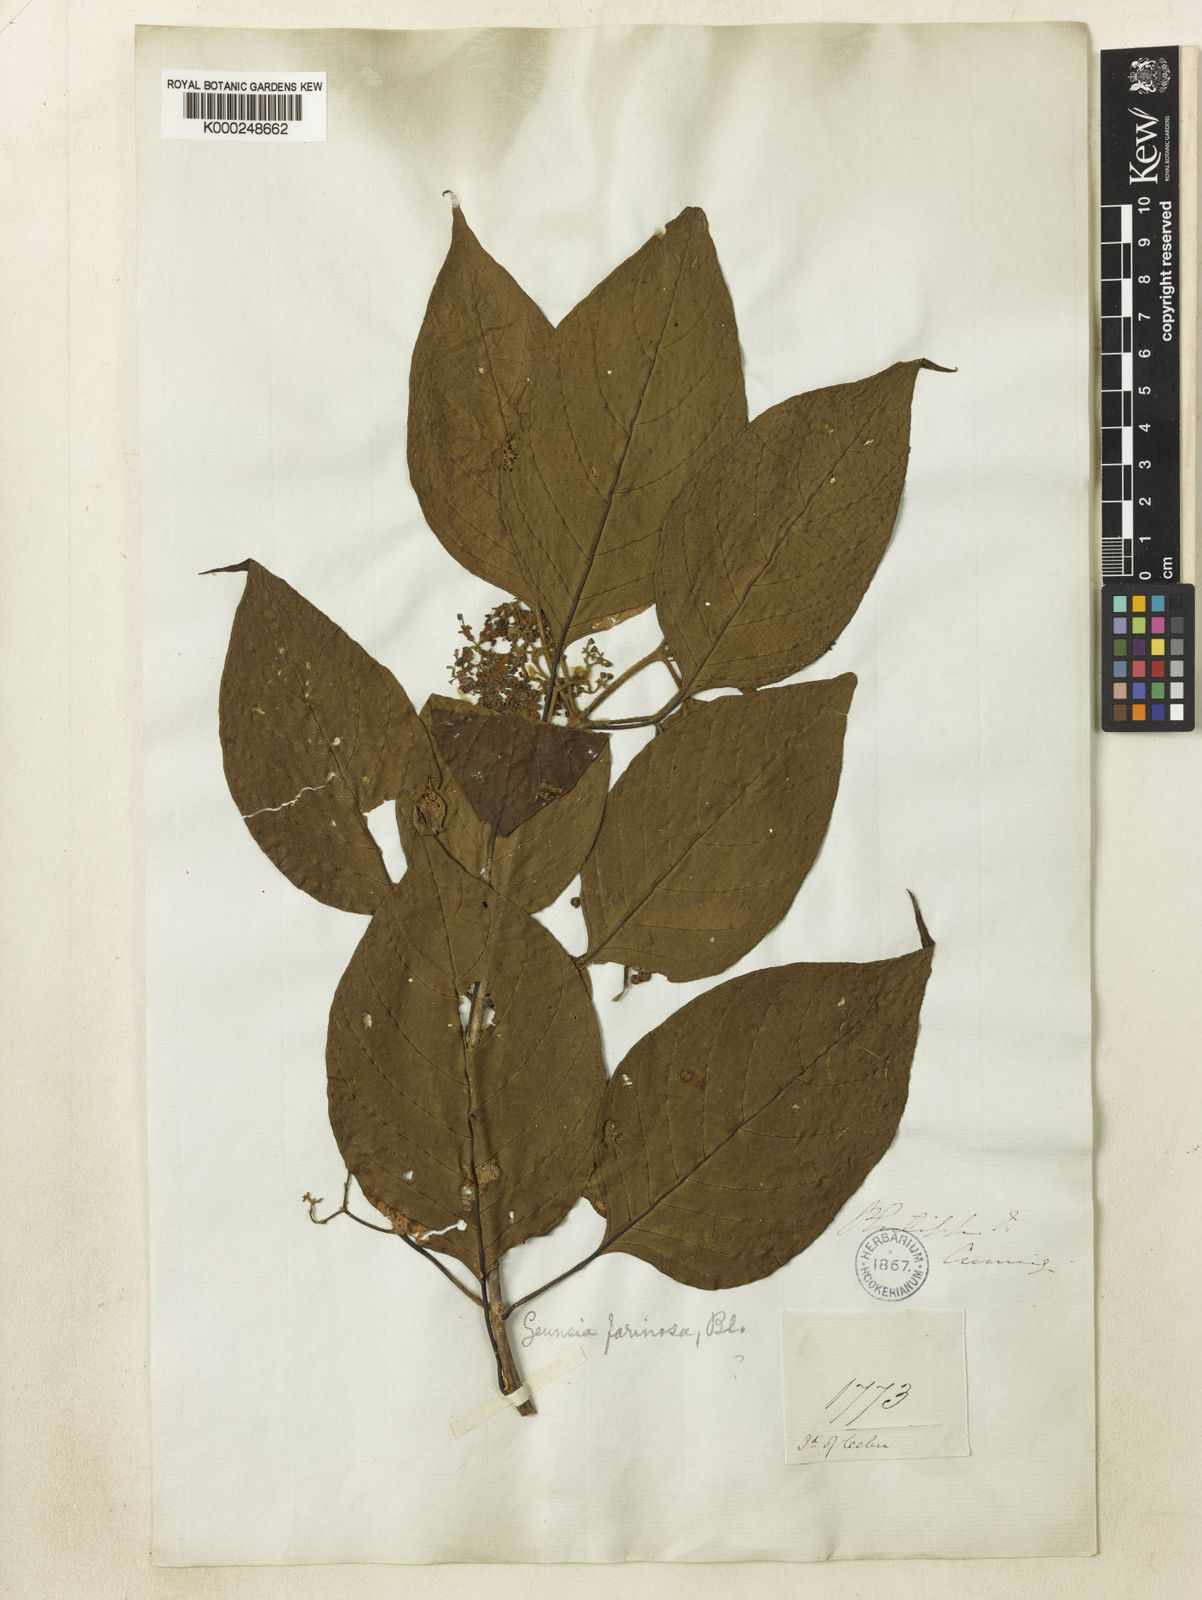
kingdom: Plantae
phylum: Tracheophyta
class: Magnoliopsida
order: Lamiales
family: Lamiaceae
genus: Callicarpa
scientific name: Callicarpa pentandra
